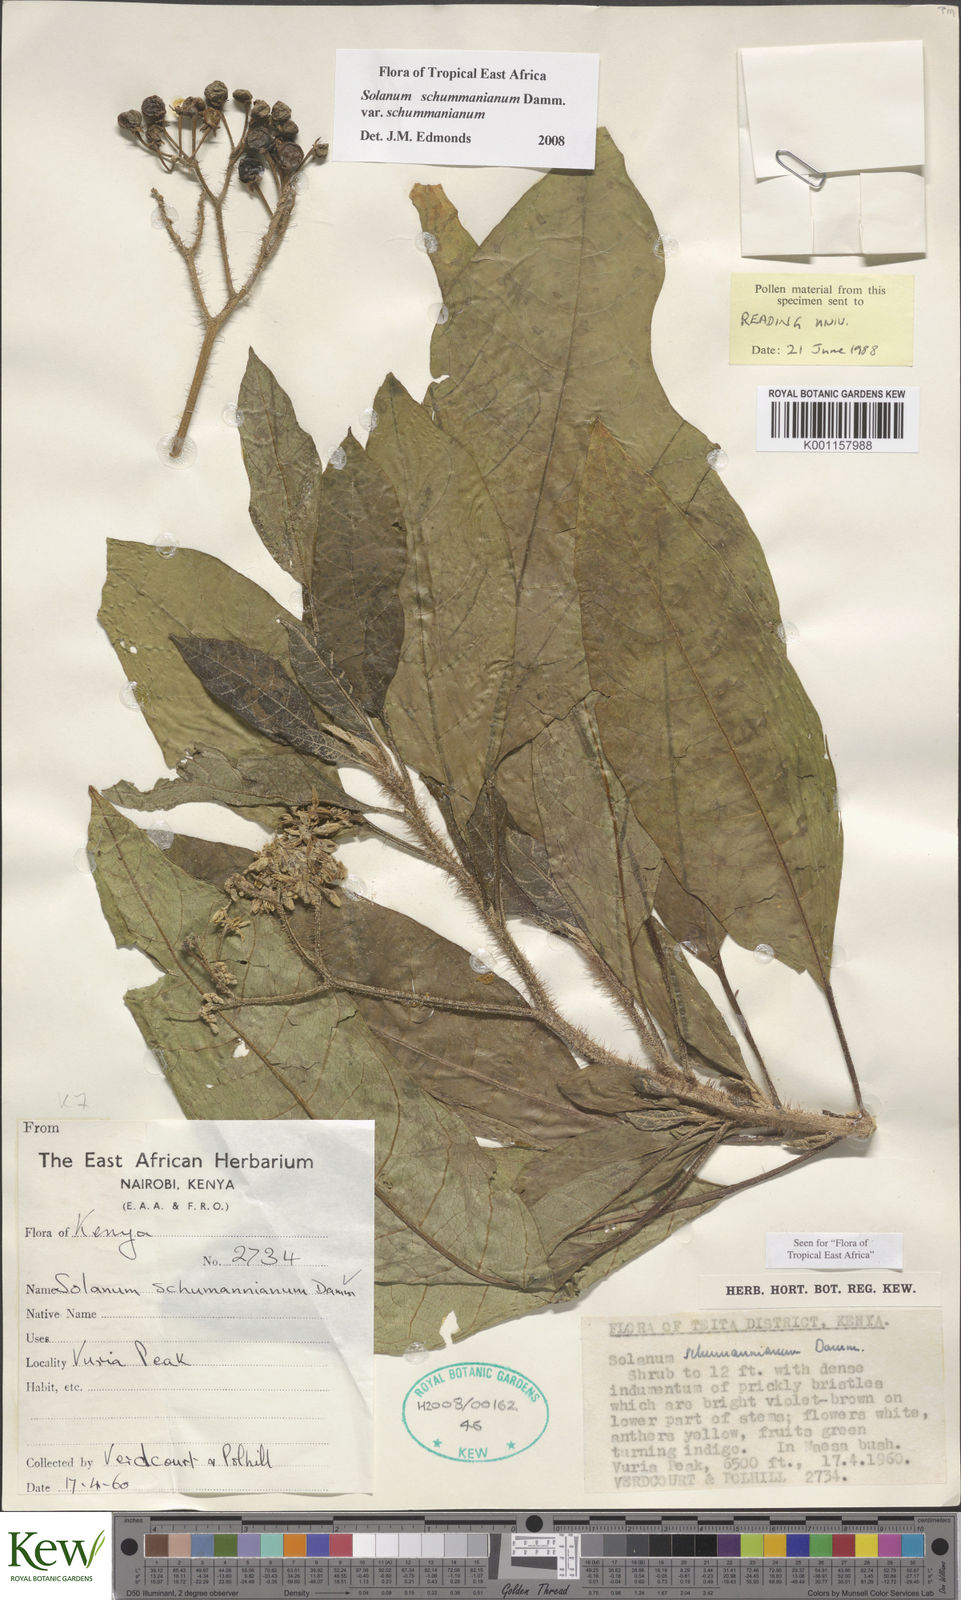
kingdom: Plantae
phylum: Tracheophyta
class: Magnoliopsida
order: Solanales
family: Solanaceae
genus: Solanum
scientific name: Solanum schumannianum
